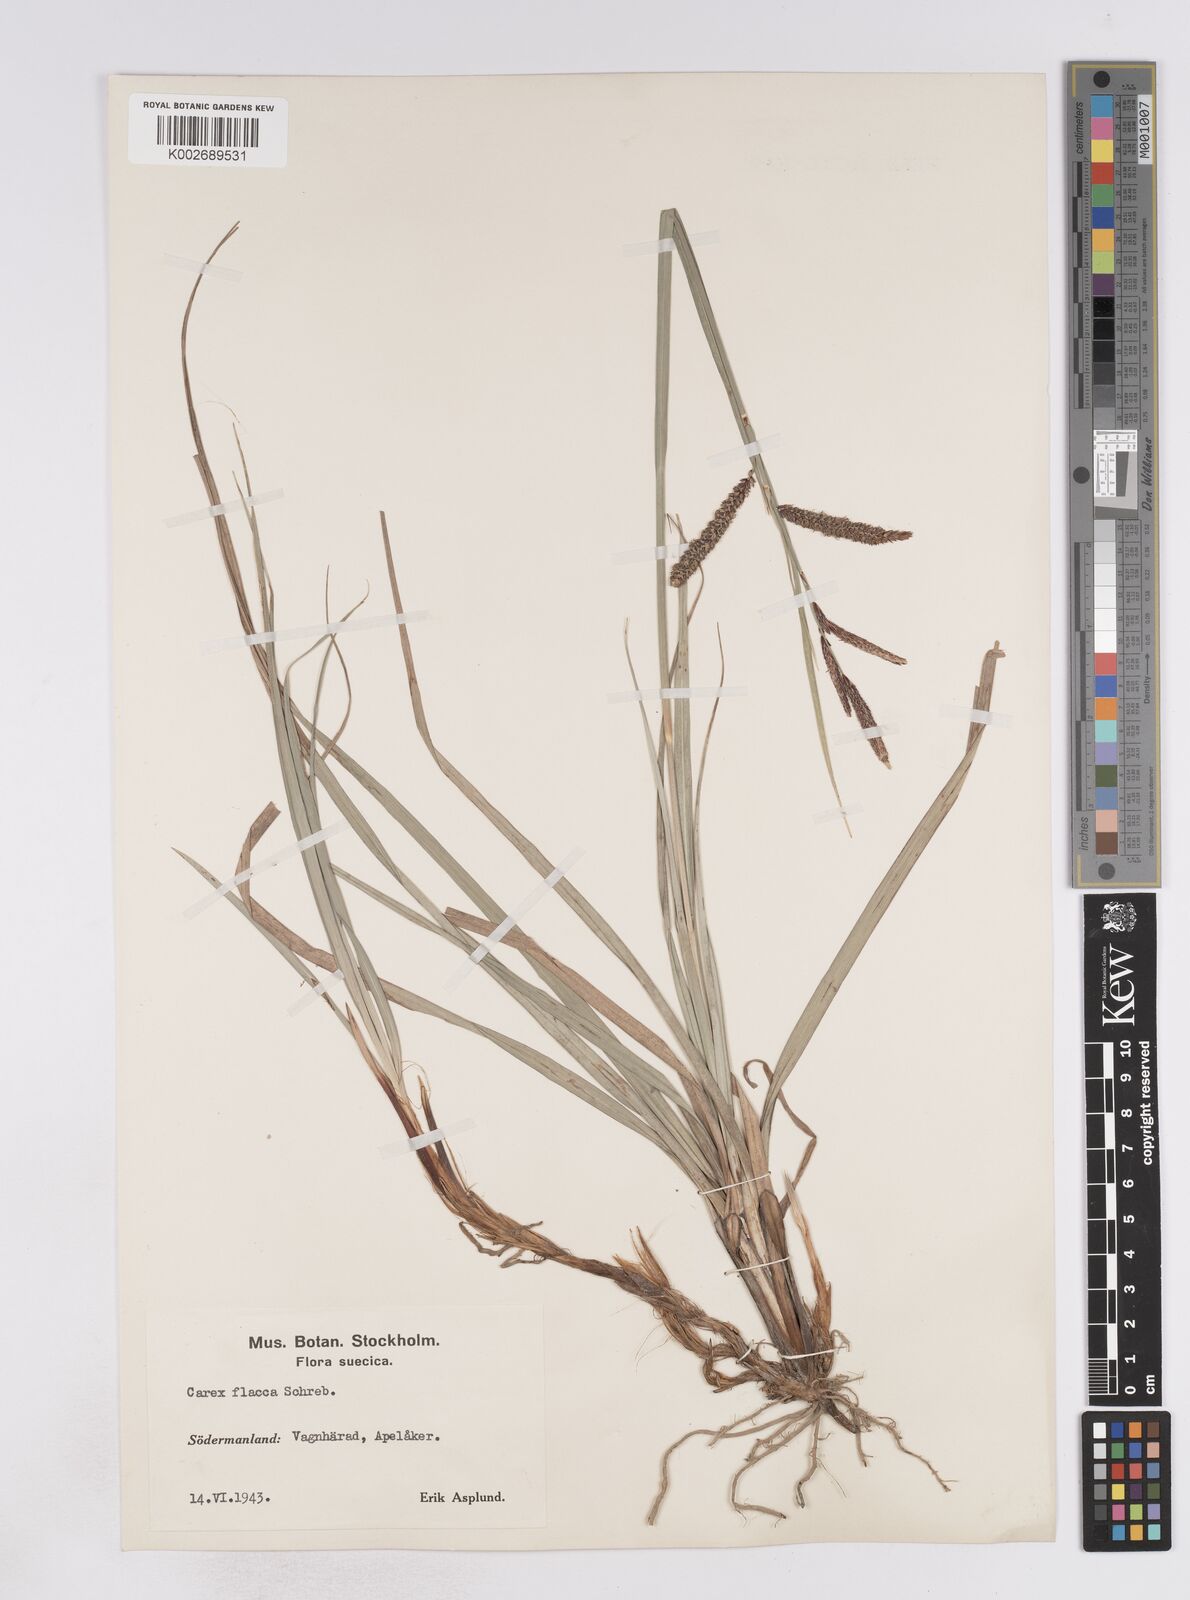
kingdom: Plantae
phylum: Tracheophyta
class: Liliopsida
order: Poales
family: Cyperaceae
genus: Carex
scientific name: Carex flacca
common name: Glaucous sedge
